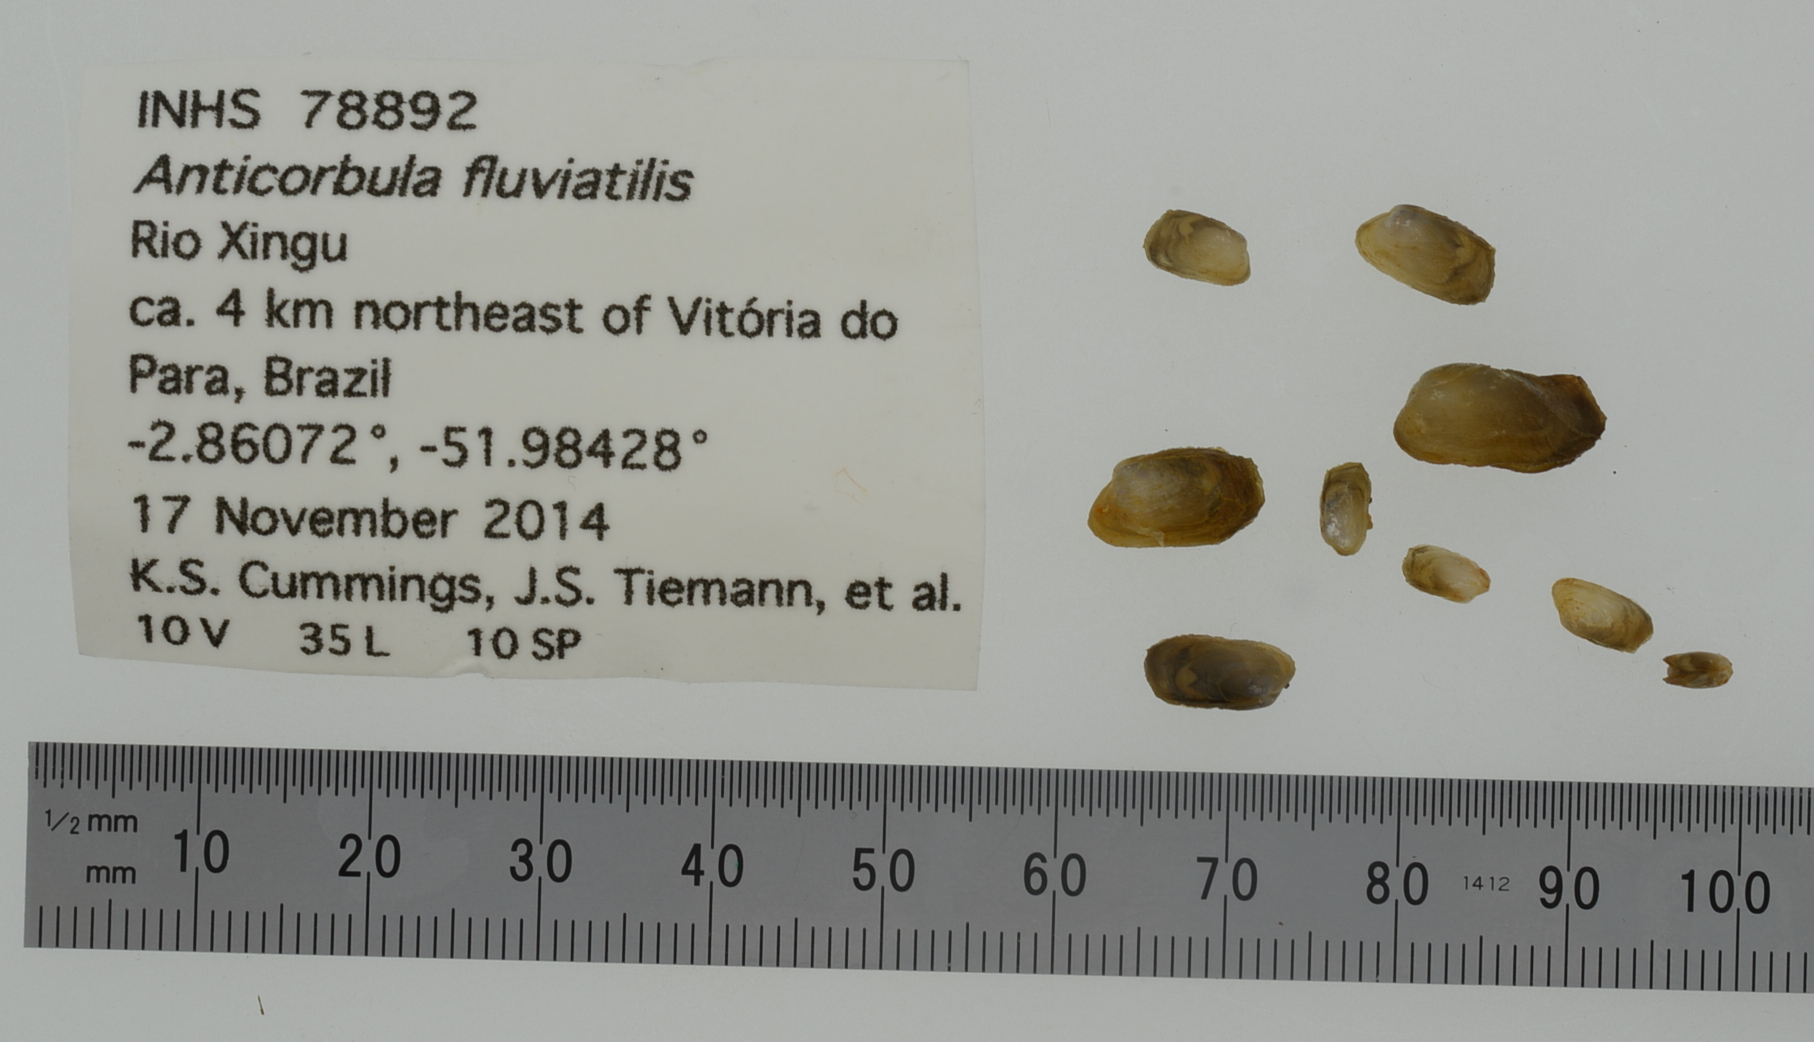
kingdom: Animalia
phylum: Mollusca
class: Bivalvia
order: Myida
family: Corbulidae
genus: Anticorbula
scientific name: Anticorbula fluviatilis
